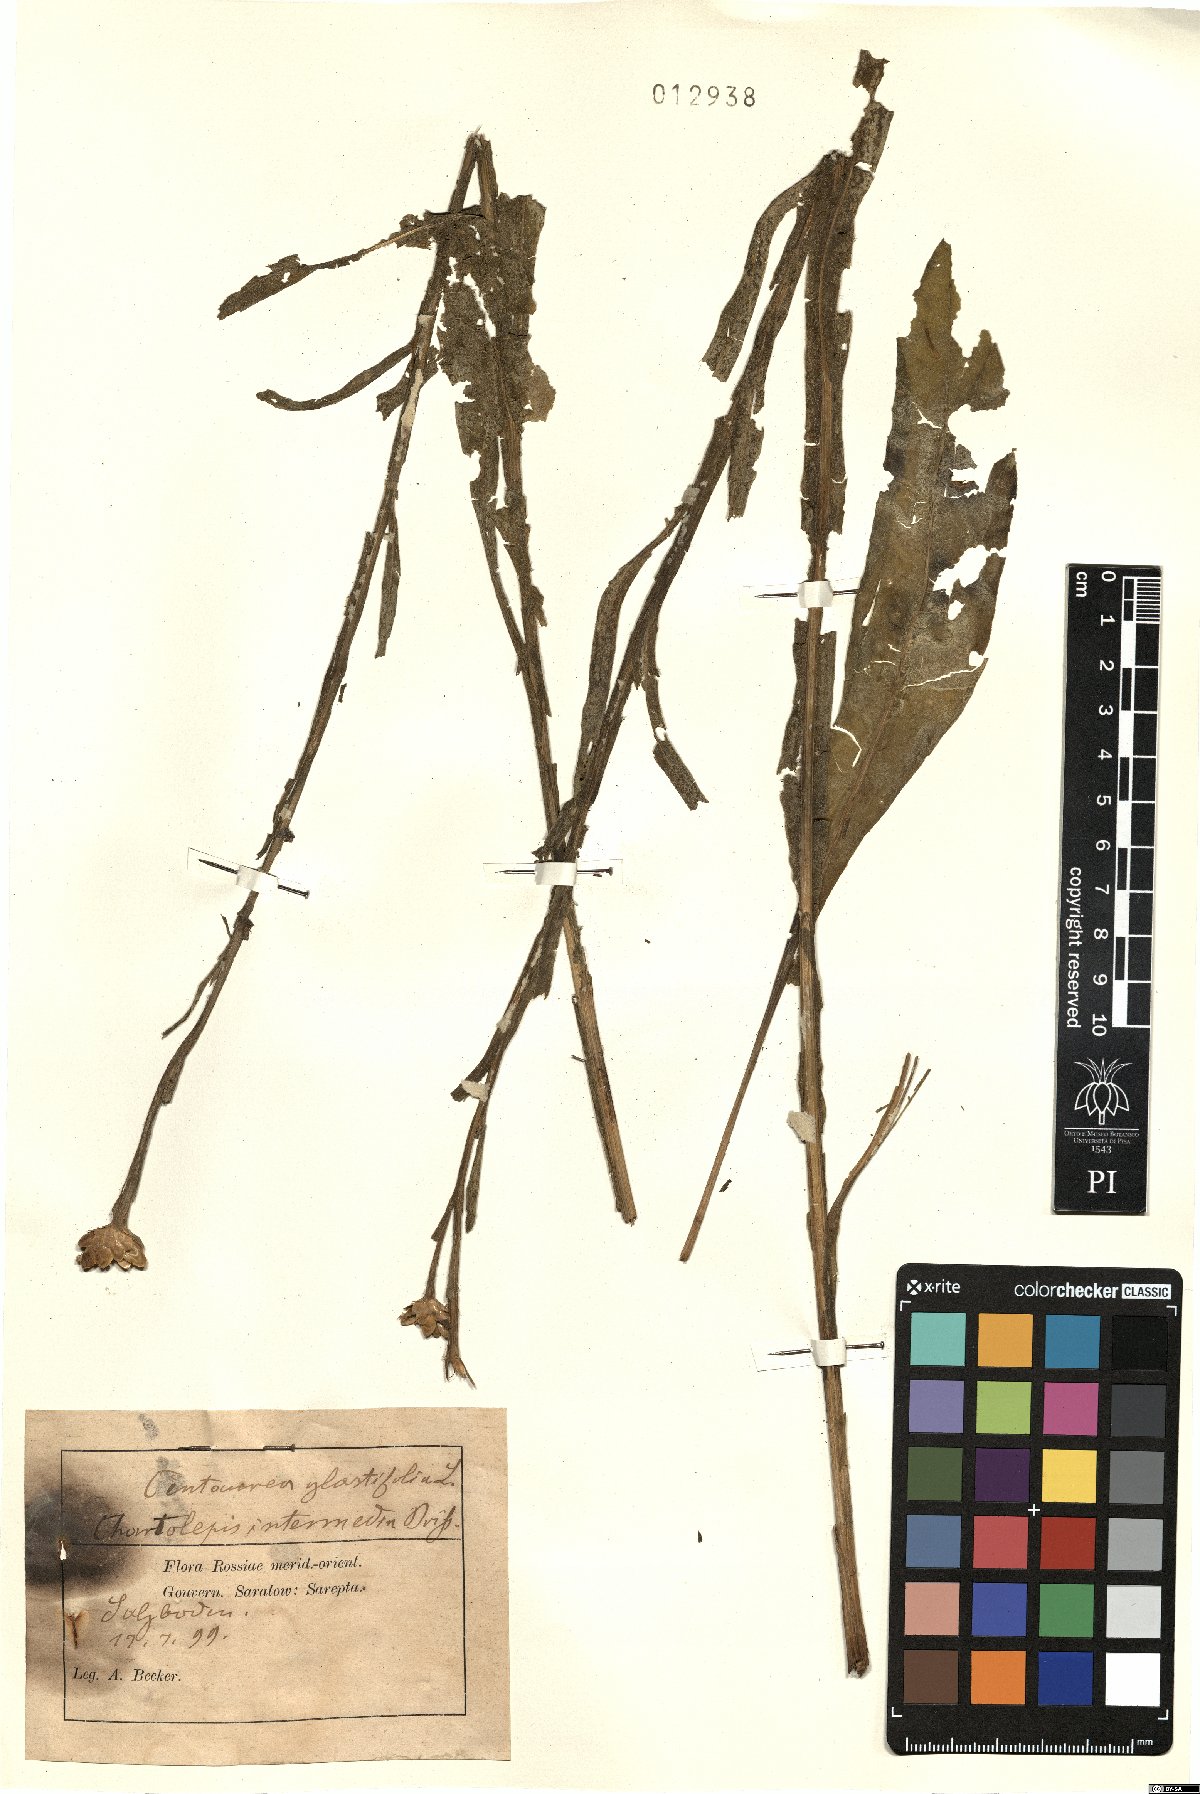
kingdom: Plantae
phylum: Tracheophyta
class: Magnoliopsida
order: Asterales
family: Asteraceae
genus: Centaurea
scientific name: Centaurea glastifolia
